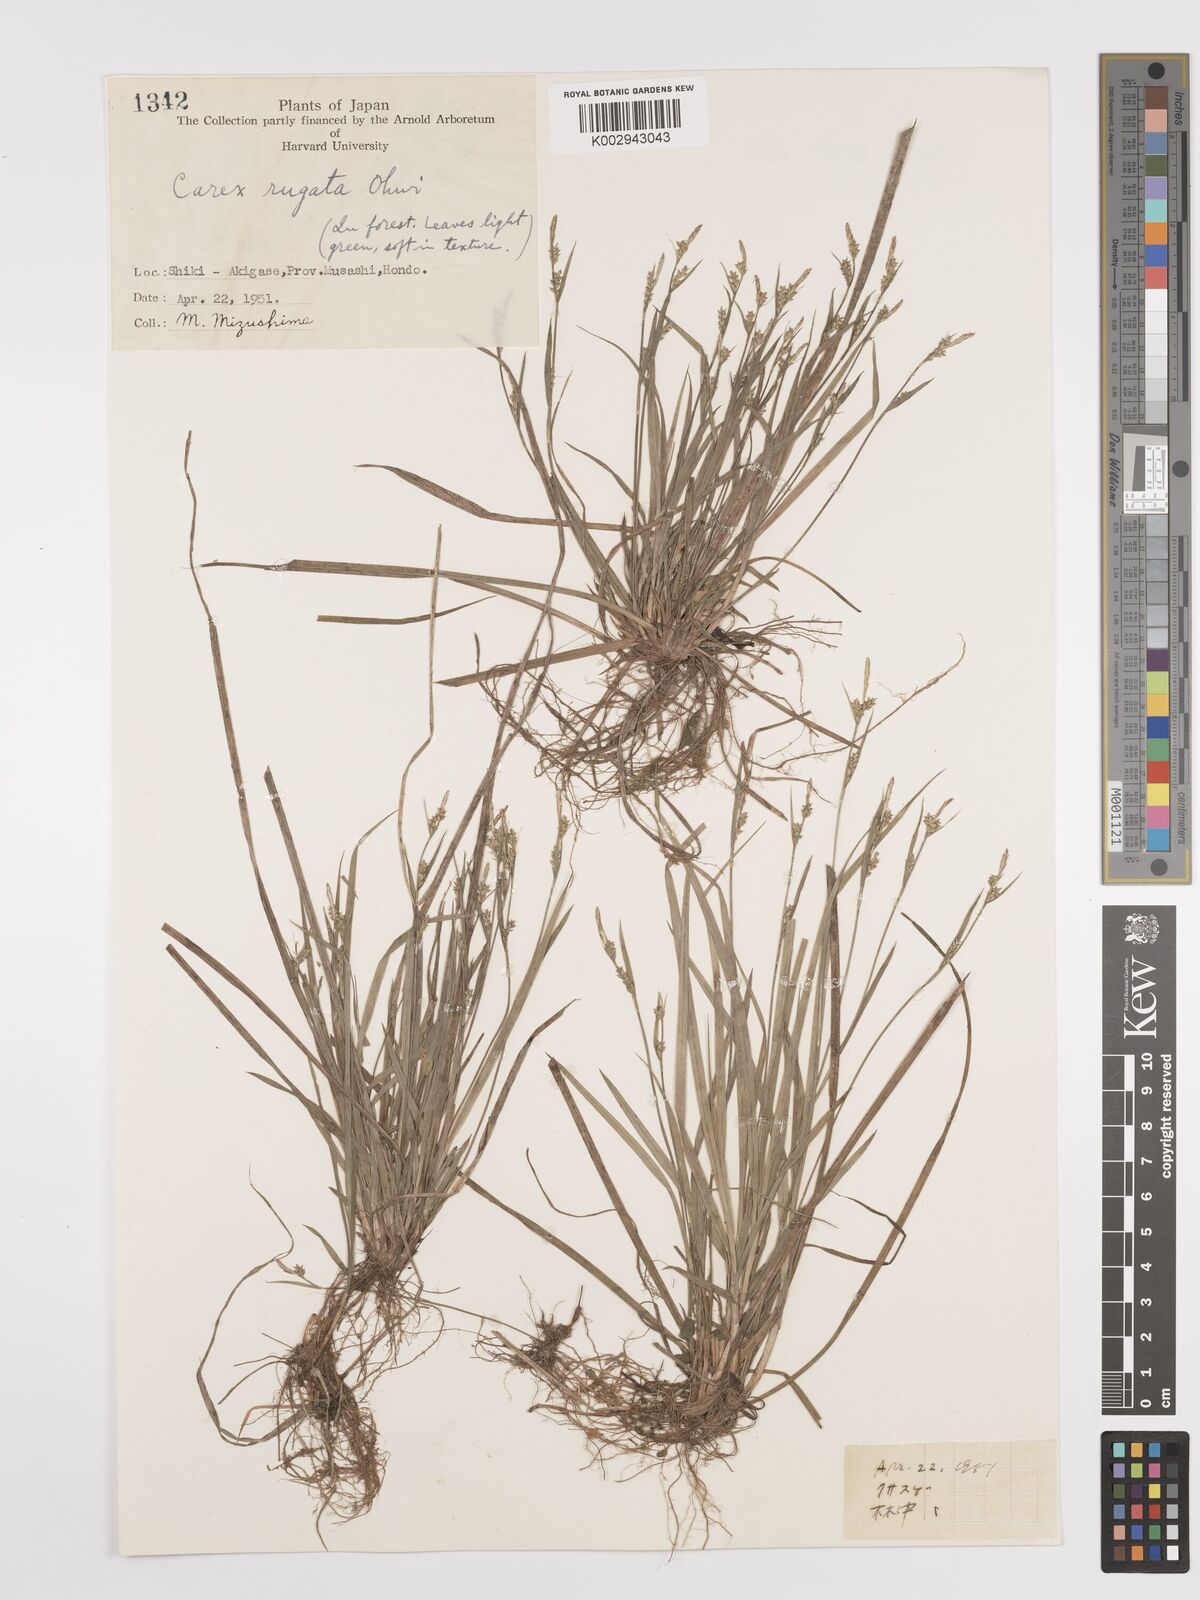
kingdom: Plantae
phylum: Tracheophyta
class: Liliopsida
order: Poales
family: Cyperaceae
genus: Carex
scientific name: Carex rugata
